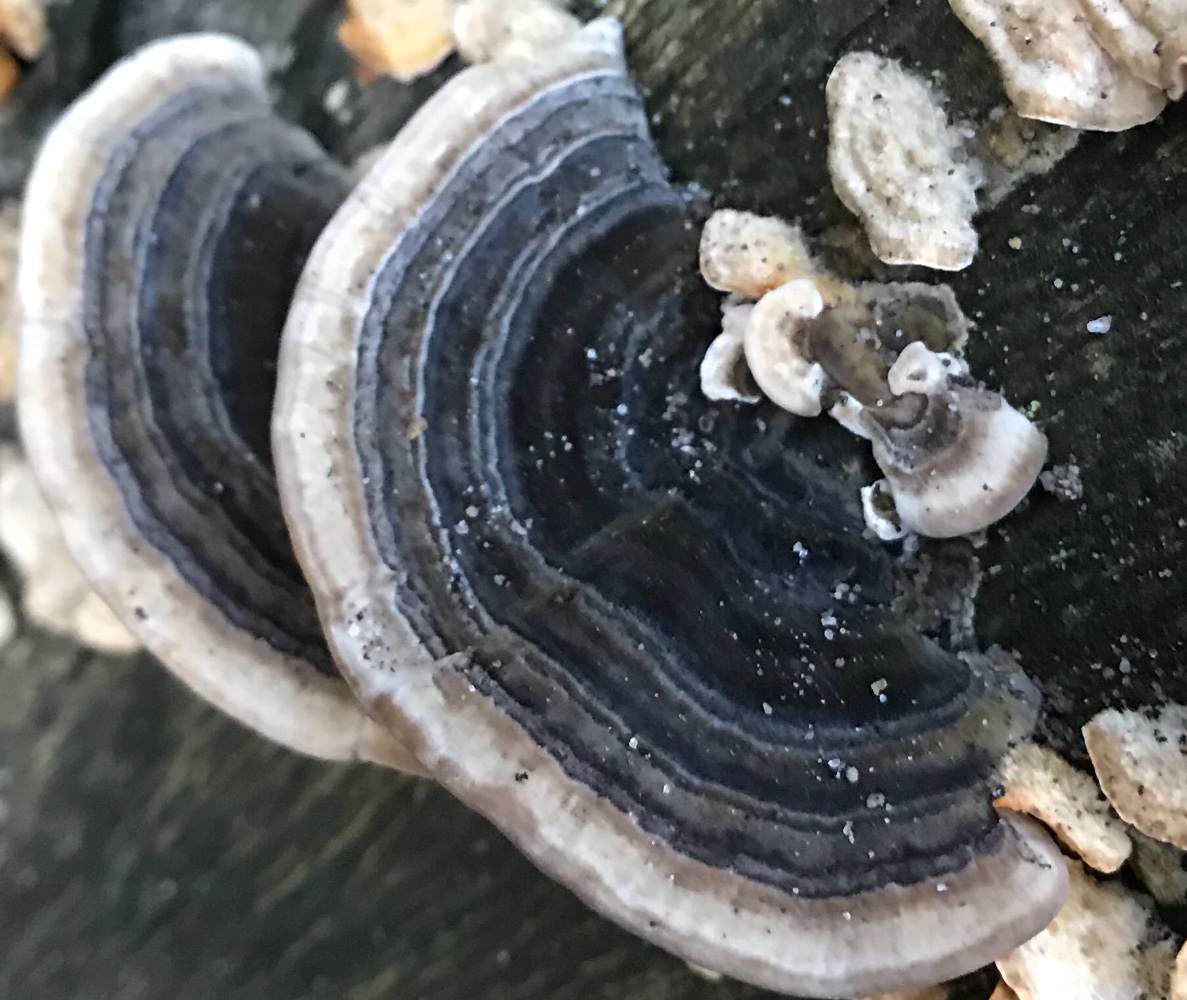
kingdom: Fungi
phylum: Basidiomycota
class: Agaricomycetes
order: Polyporales
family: Polyporaceae
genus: Trametes
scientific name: Trametes versicolor
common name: broget læderporesvamp
